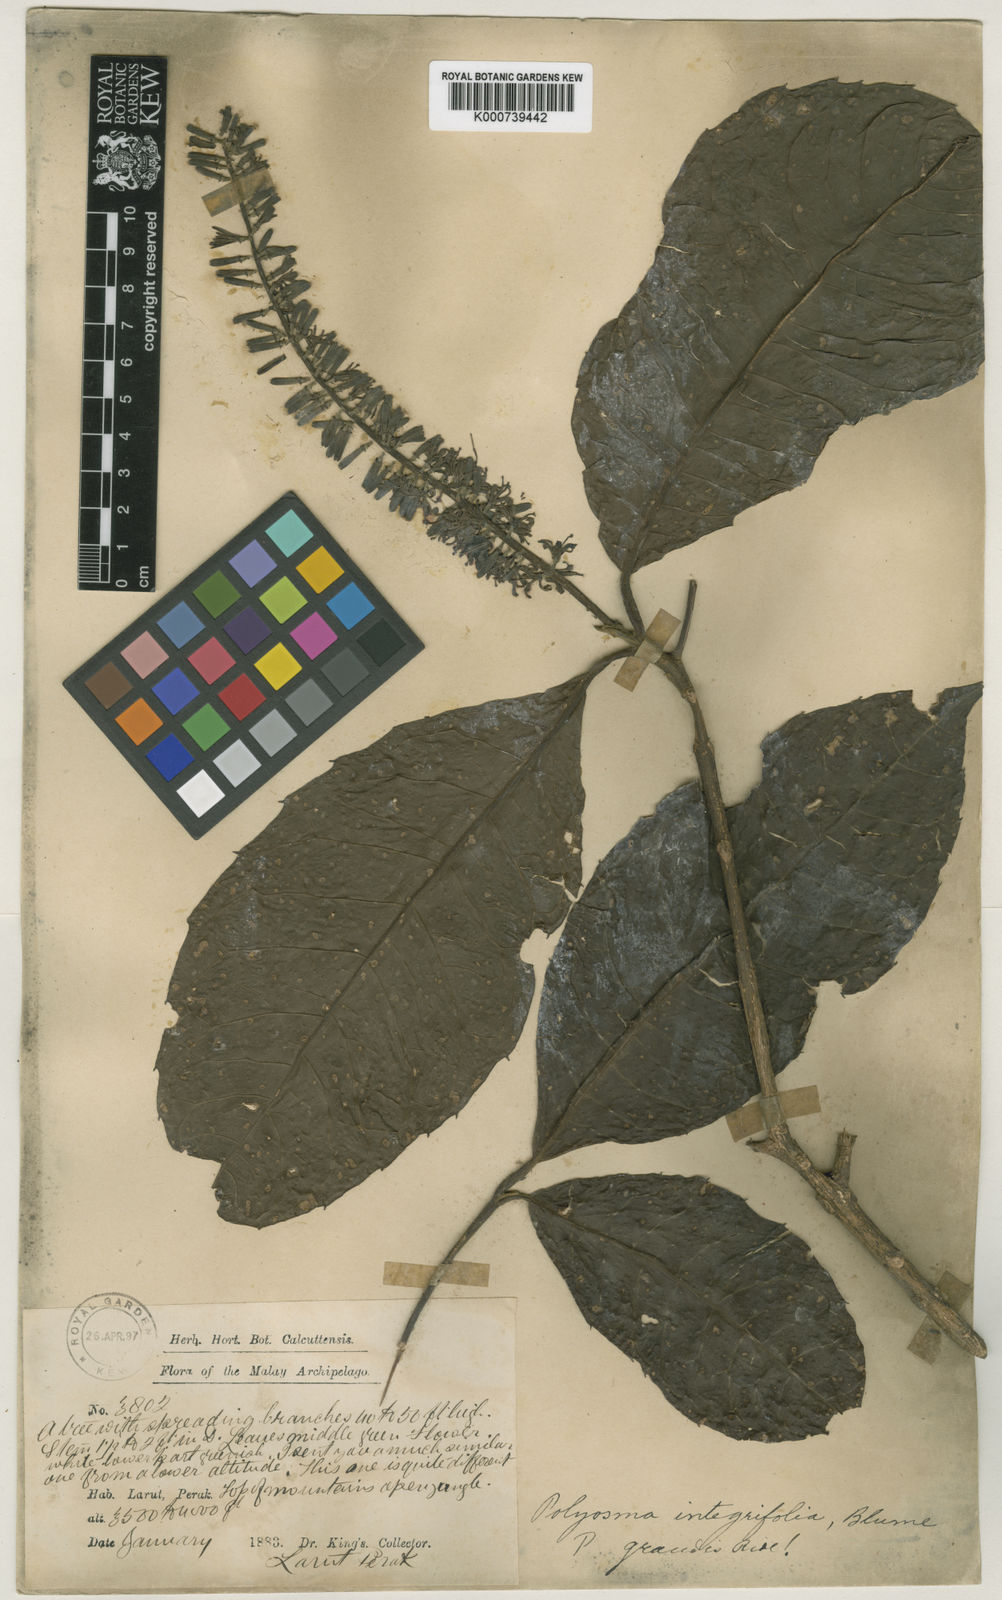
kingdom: Plantae
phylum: Tracheophyta
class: Magnoliopsida
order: Escalloniales
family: Escalloniaceae
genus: Polyosma
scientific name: Polyosma grandis
